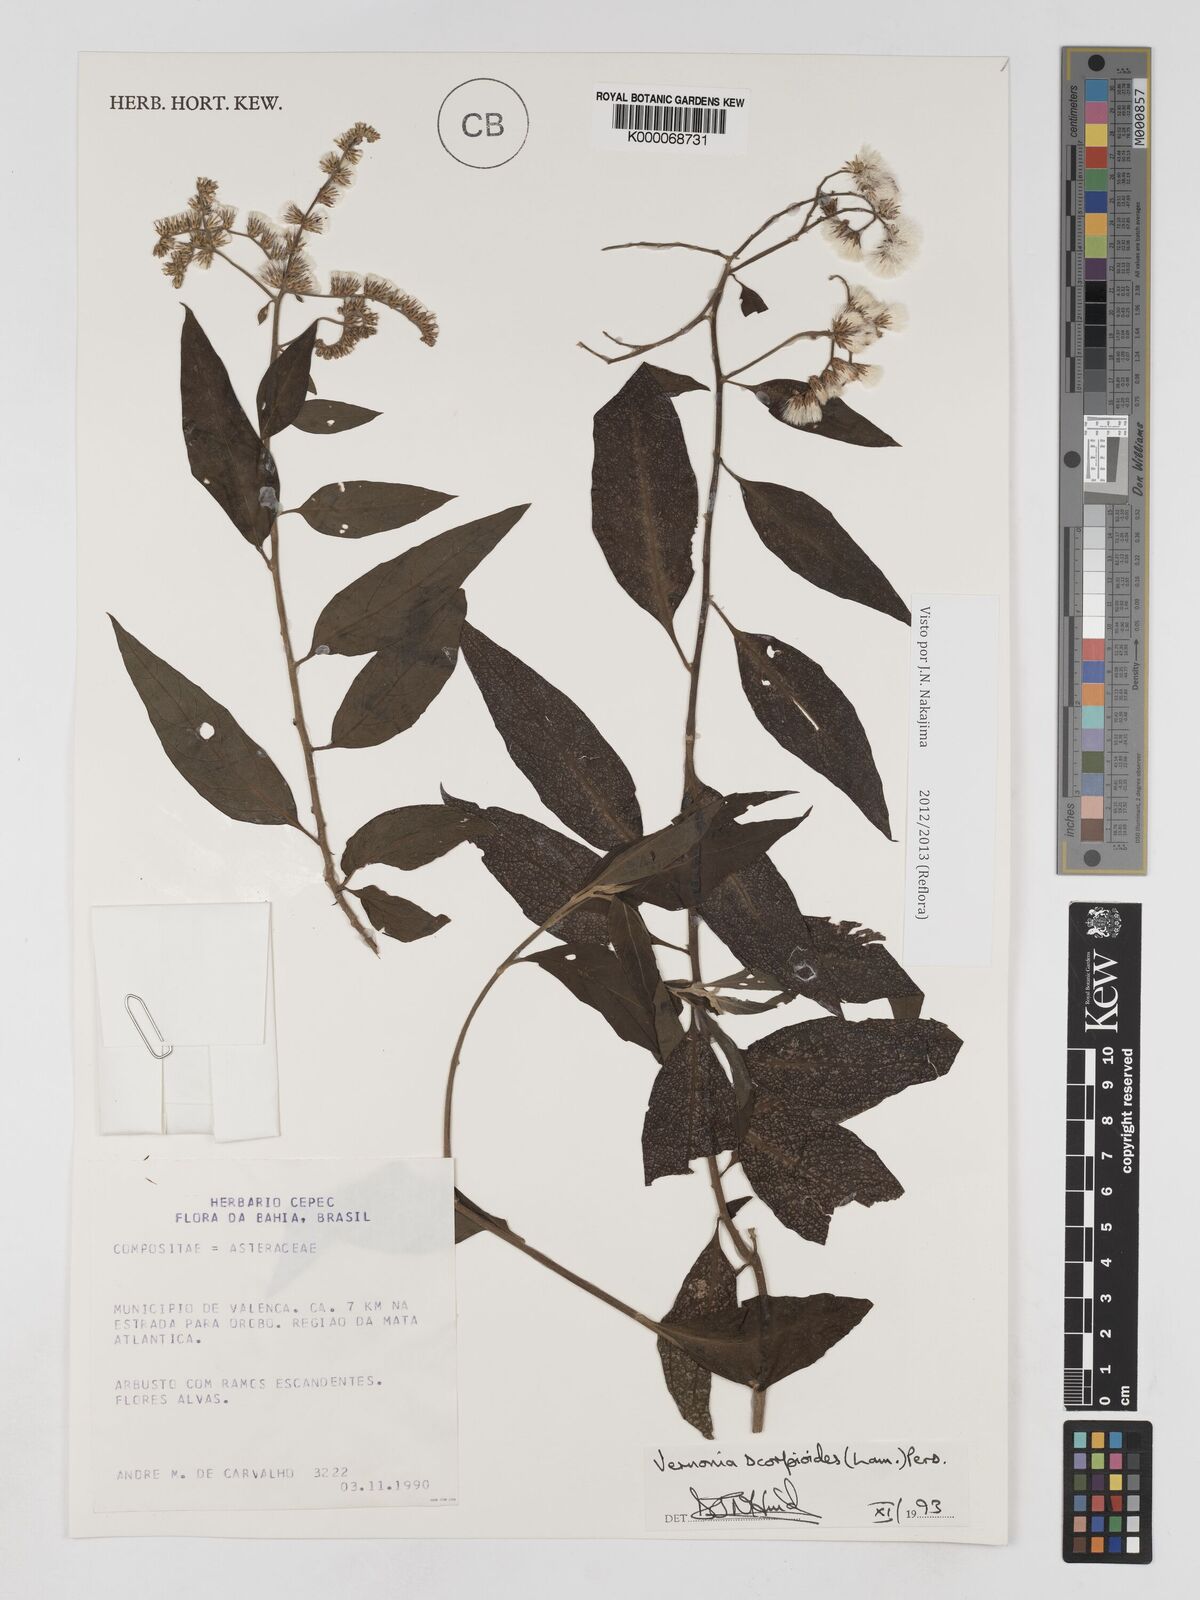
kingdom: Plantae
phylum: Tracheophyta
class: Magnoliopsida
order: Asterales
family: Asteraceae
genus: Cyrtocymura
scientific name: Cyrtocymura scorpioides
